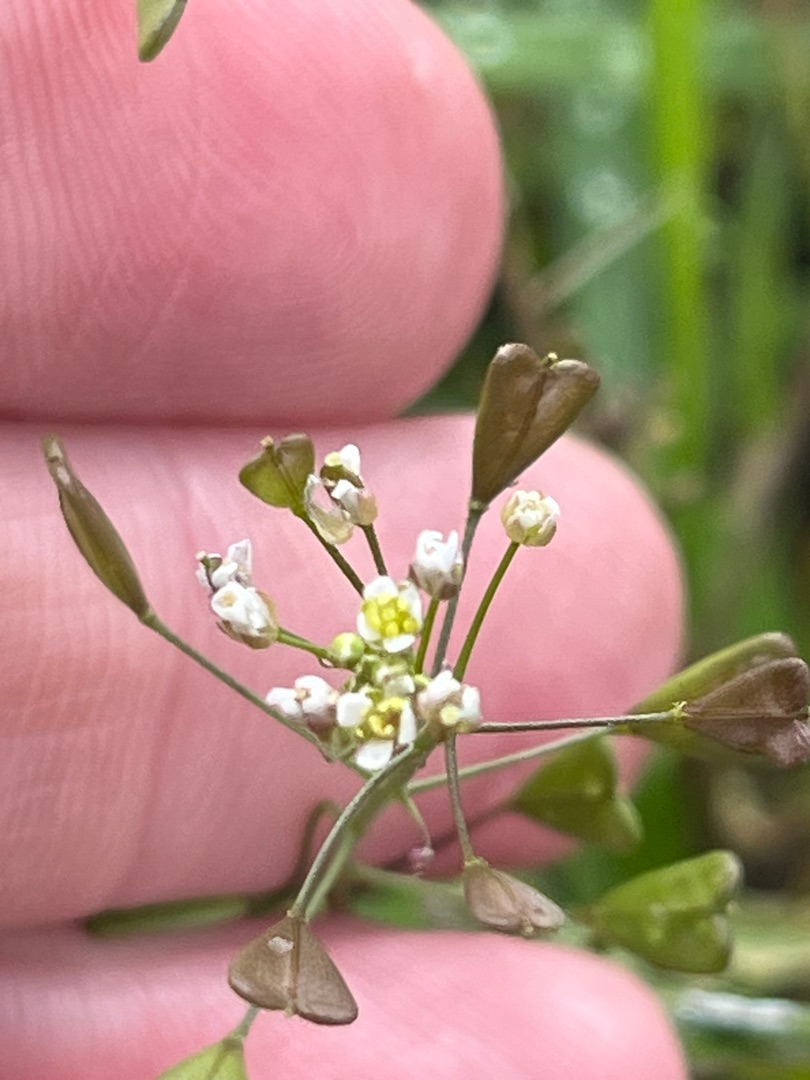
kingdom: Plantae
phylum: Tracheophyta
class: Magnoliopsida
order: Brassicales
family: Brassicaceae
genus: Capsella
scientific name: Capsella bursa-pastoris
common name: Hyrdetaske
